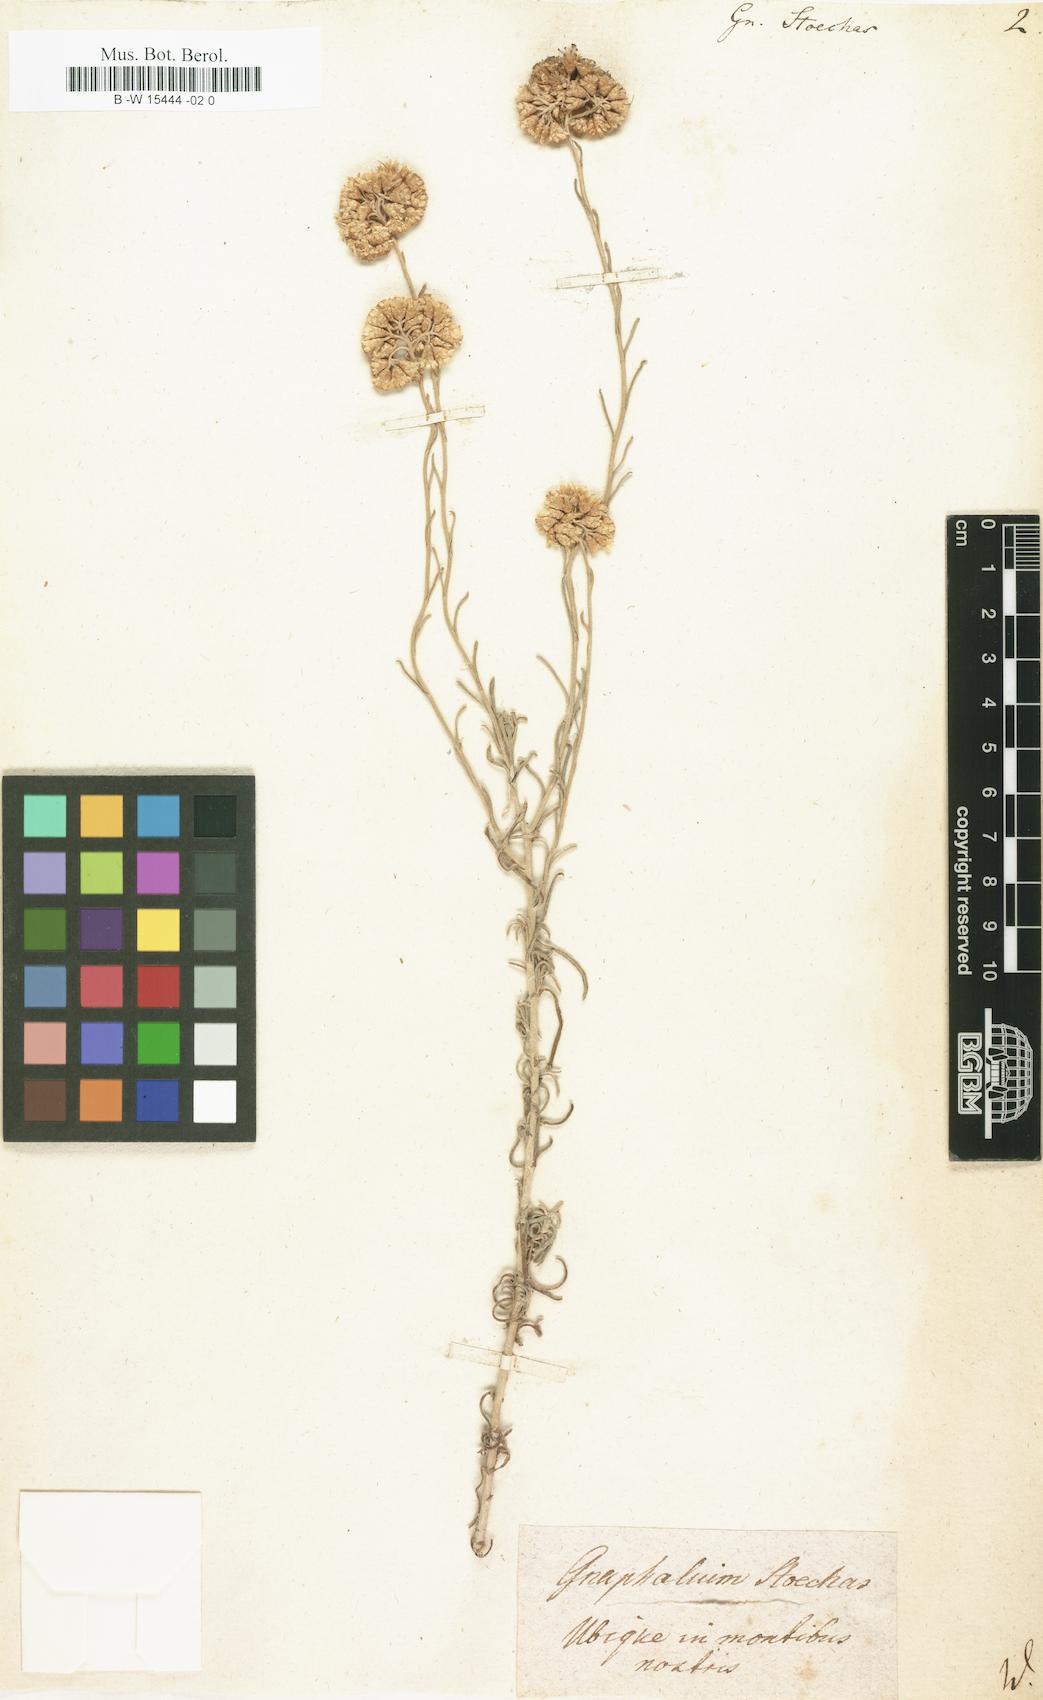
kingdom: Plantae
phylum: Tracheophyta
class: Magnoliopsida
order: Asterales
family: Asteraceae
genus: Helichrysum
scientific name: Helichrysum
